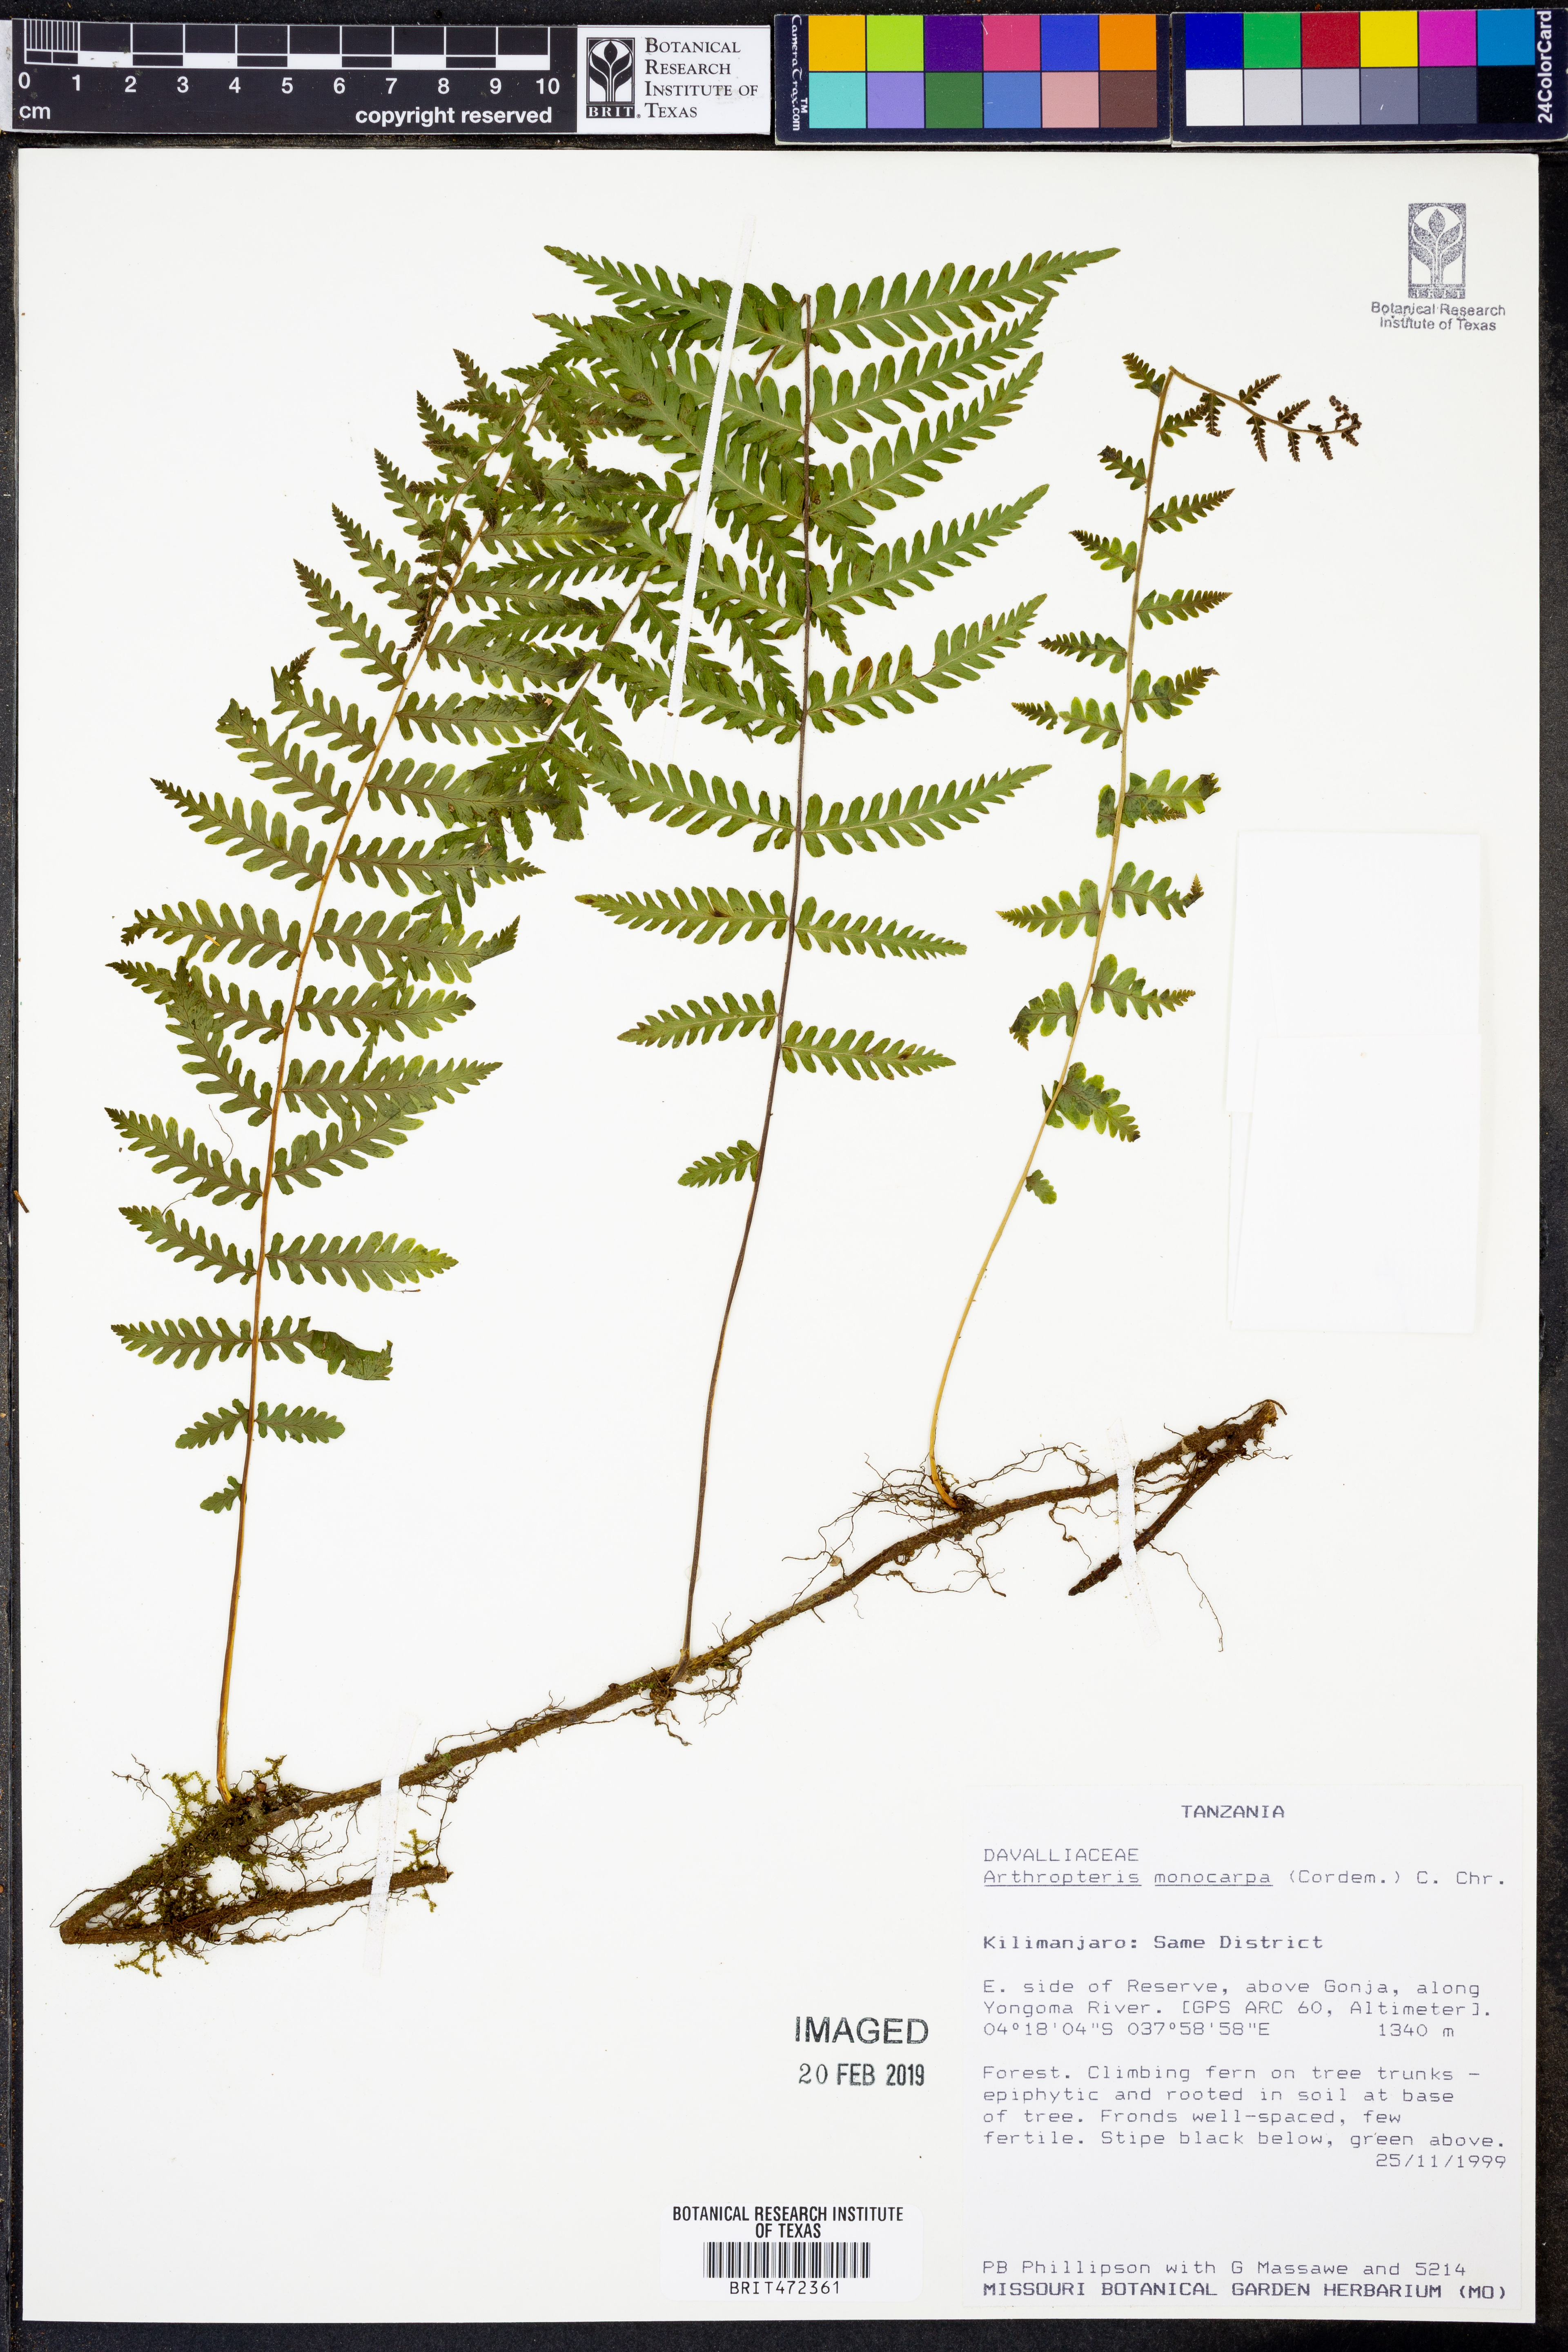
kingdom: Plantae
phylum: Tracheophyta
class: Polypodiopsida
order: Polypodiales
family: Tectariaceae
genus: Arthropteris
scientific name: Arthropteris monocarpa
